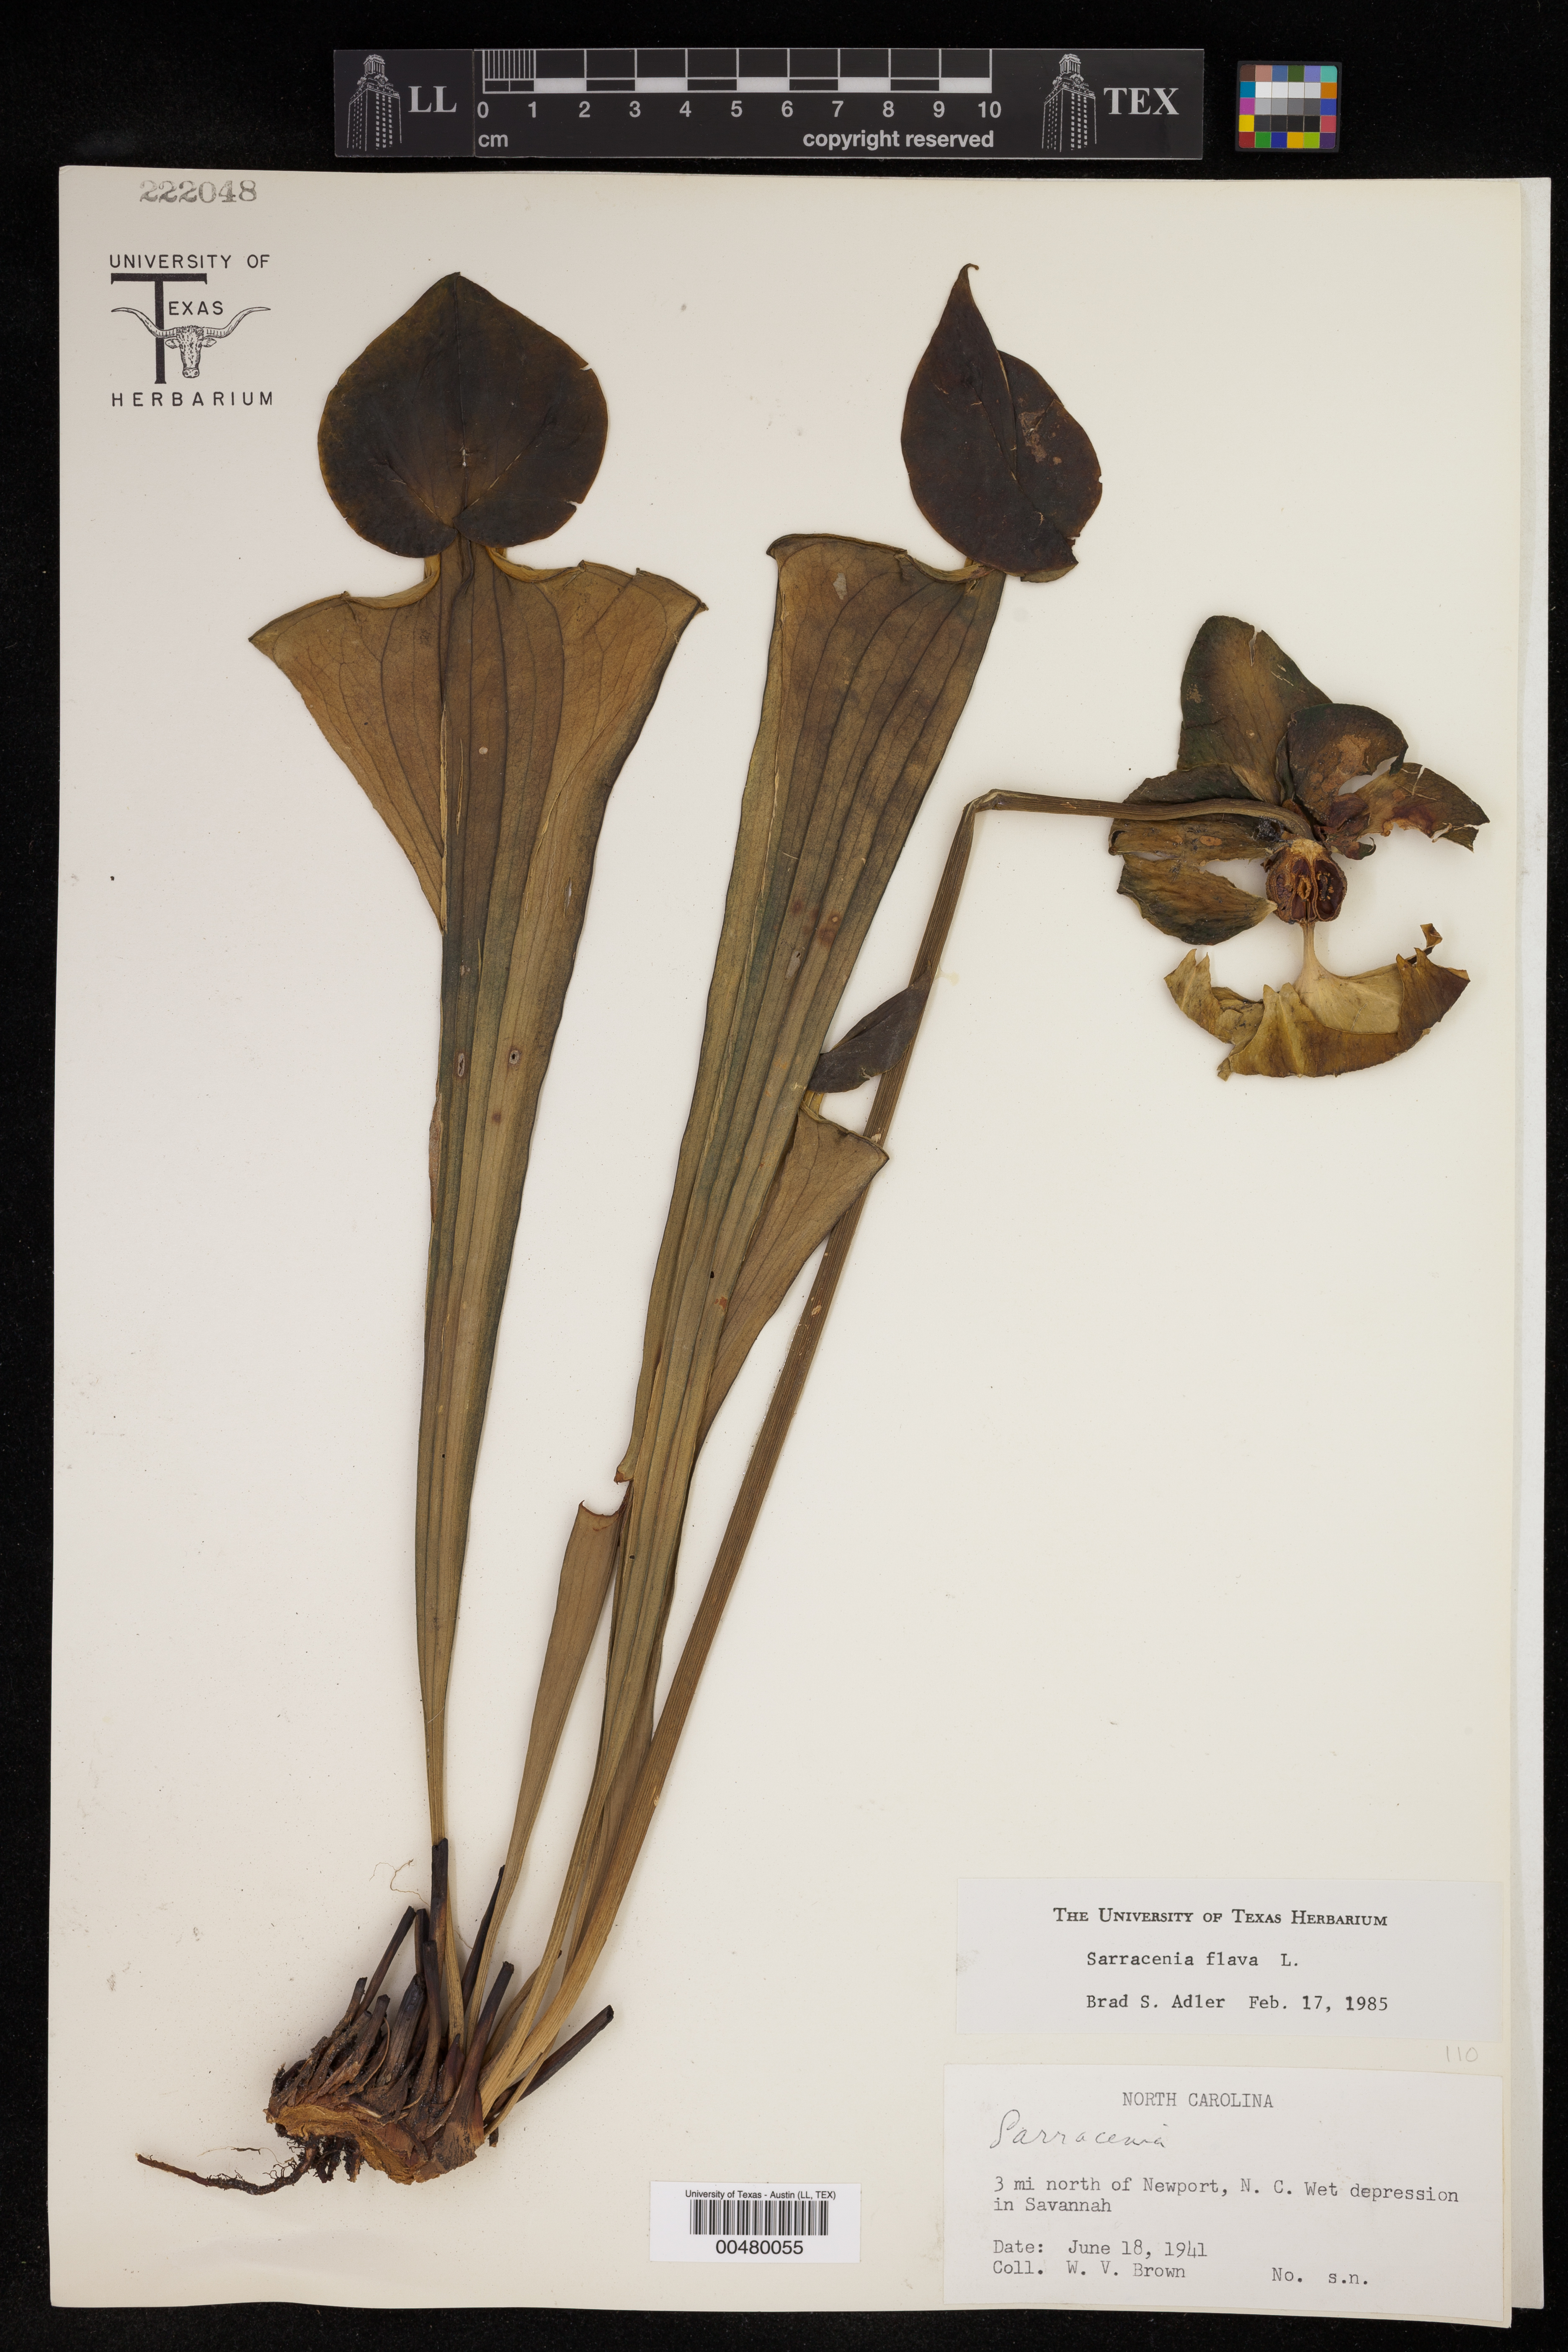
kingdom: Plantae
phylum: Tracheophyta
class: Magnoliopsida
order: Ericales
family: Sarraceniaceae
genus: Sarracenia
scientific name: Sarracenia flava
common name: Trumpets
